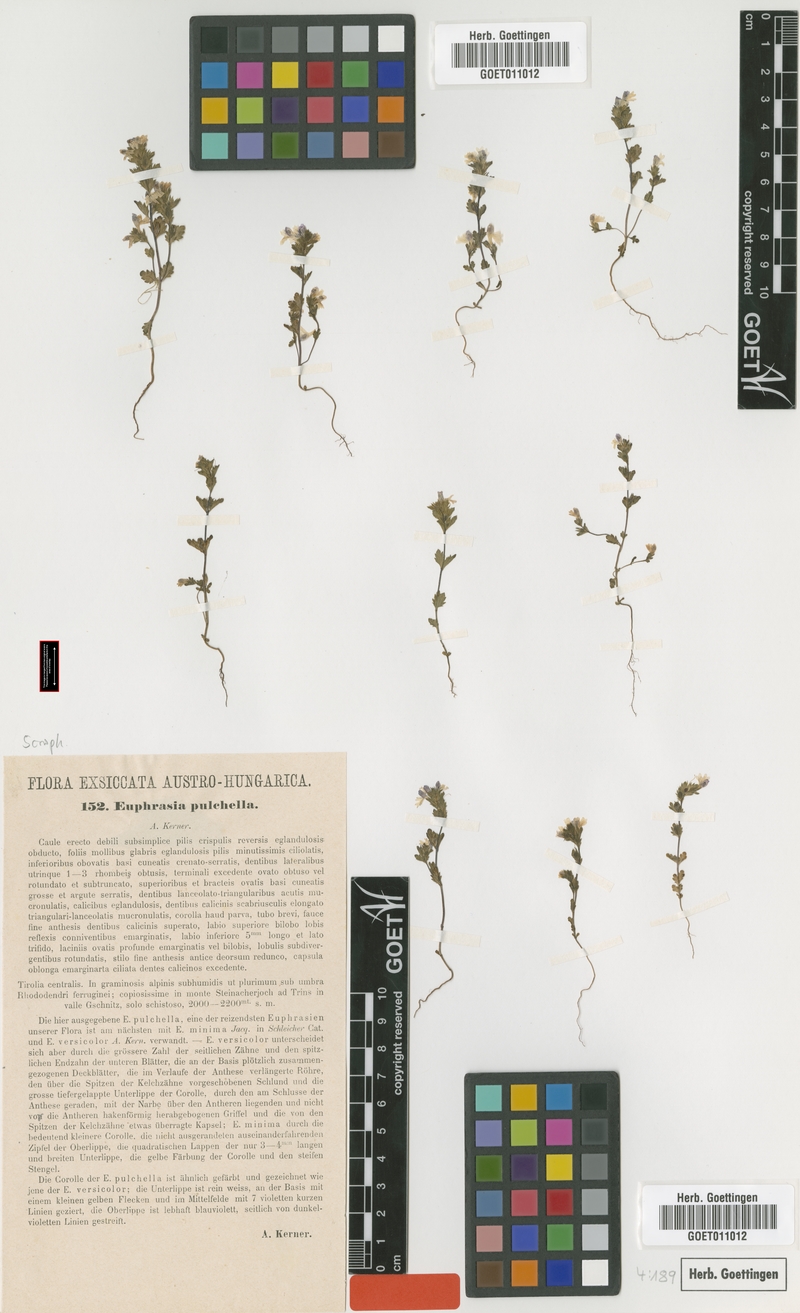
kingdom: Plantae
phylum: Tracheophyta
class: Magnoliopsida
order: Lamiales
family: Orobanchaceae
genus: Euphrasia
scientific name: Euphrasia pulchella
